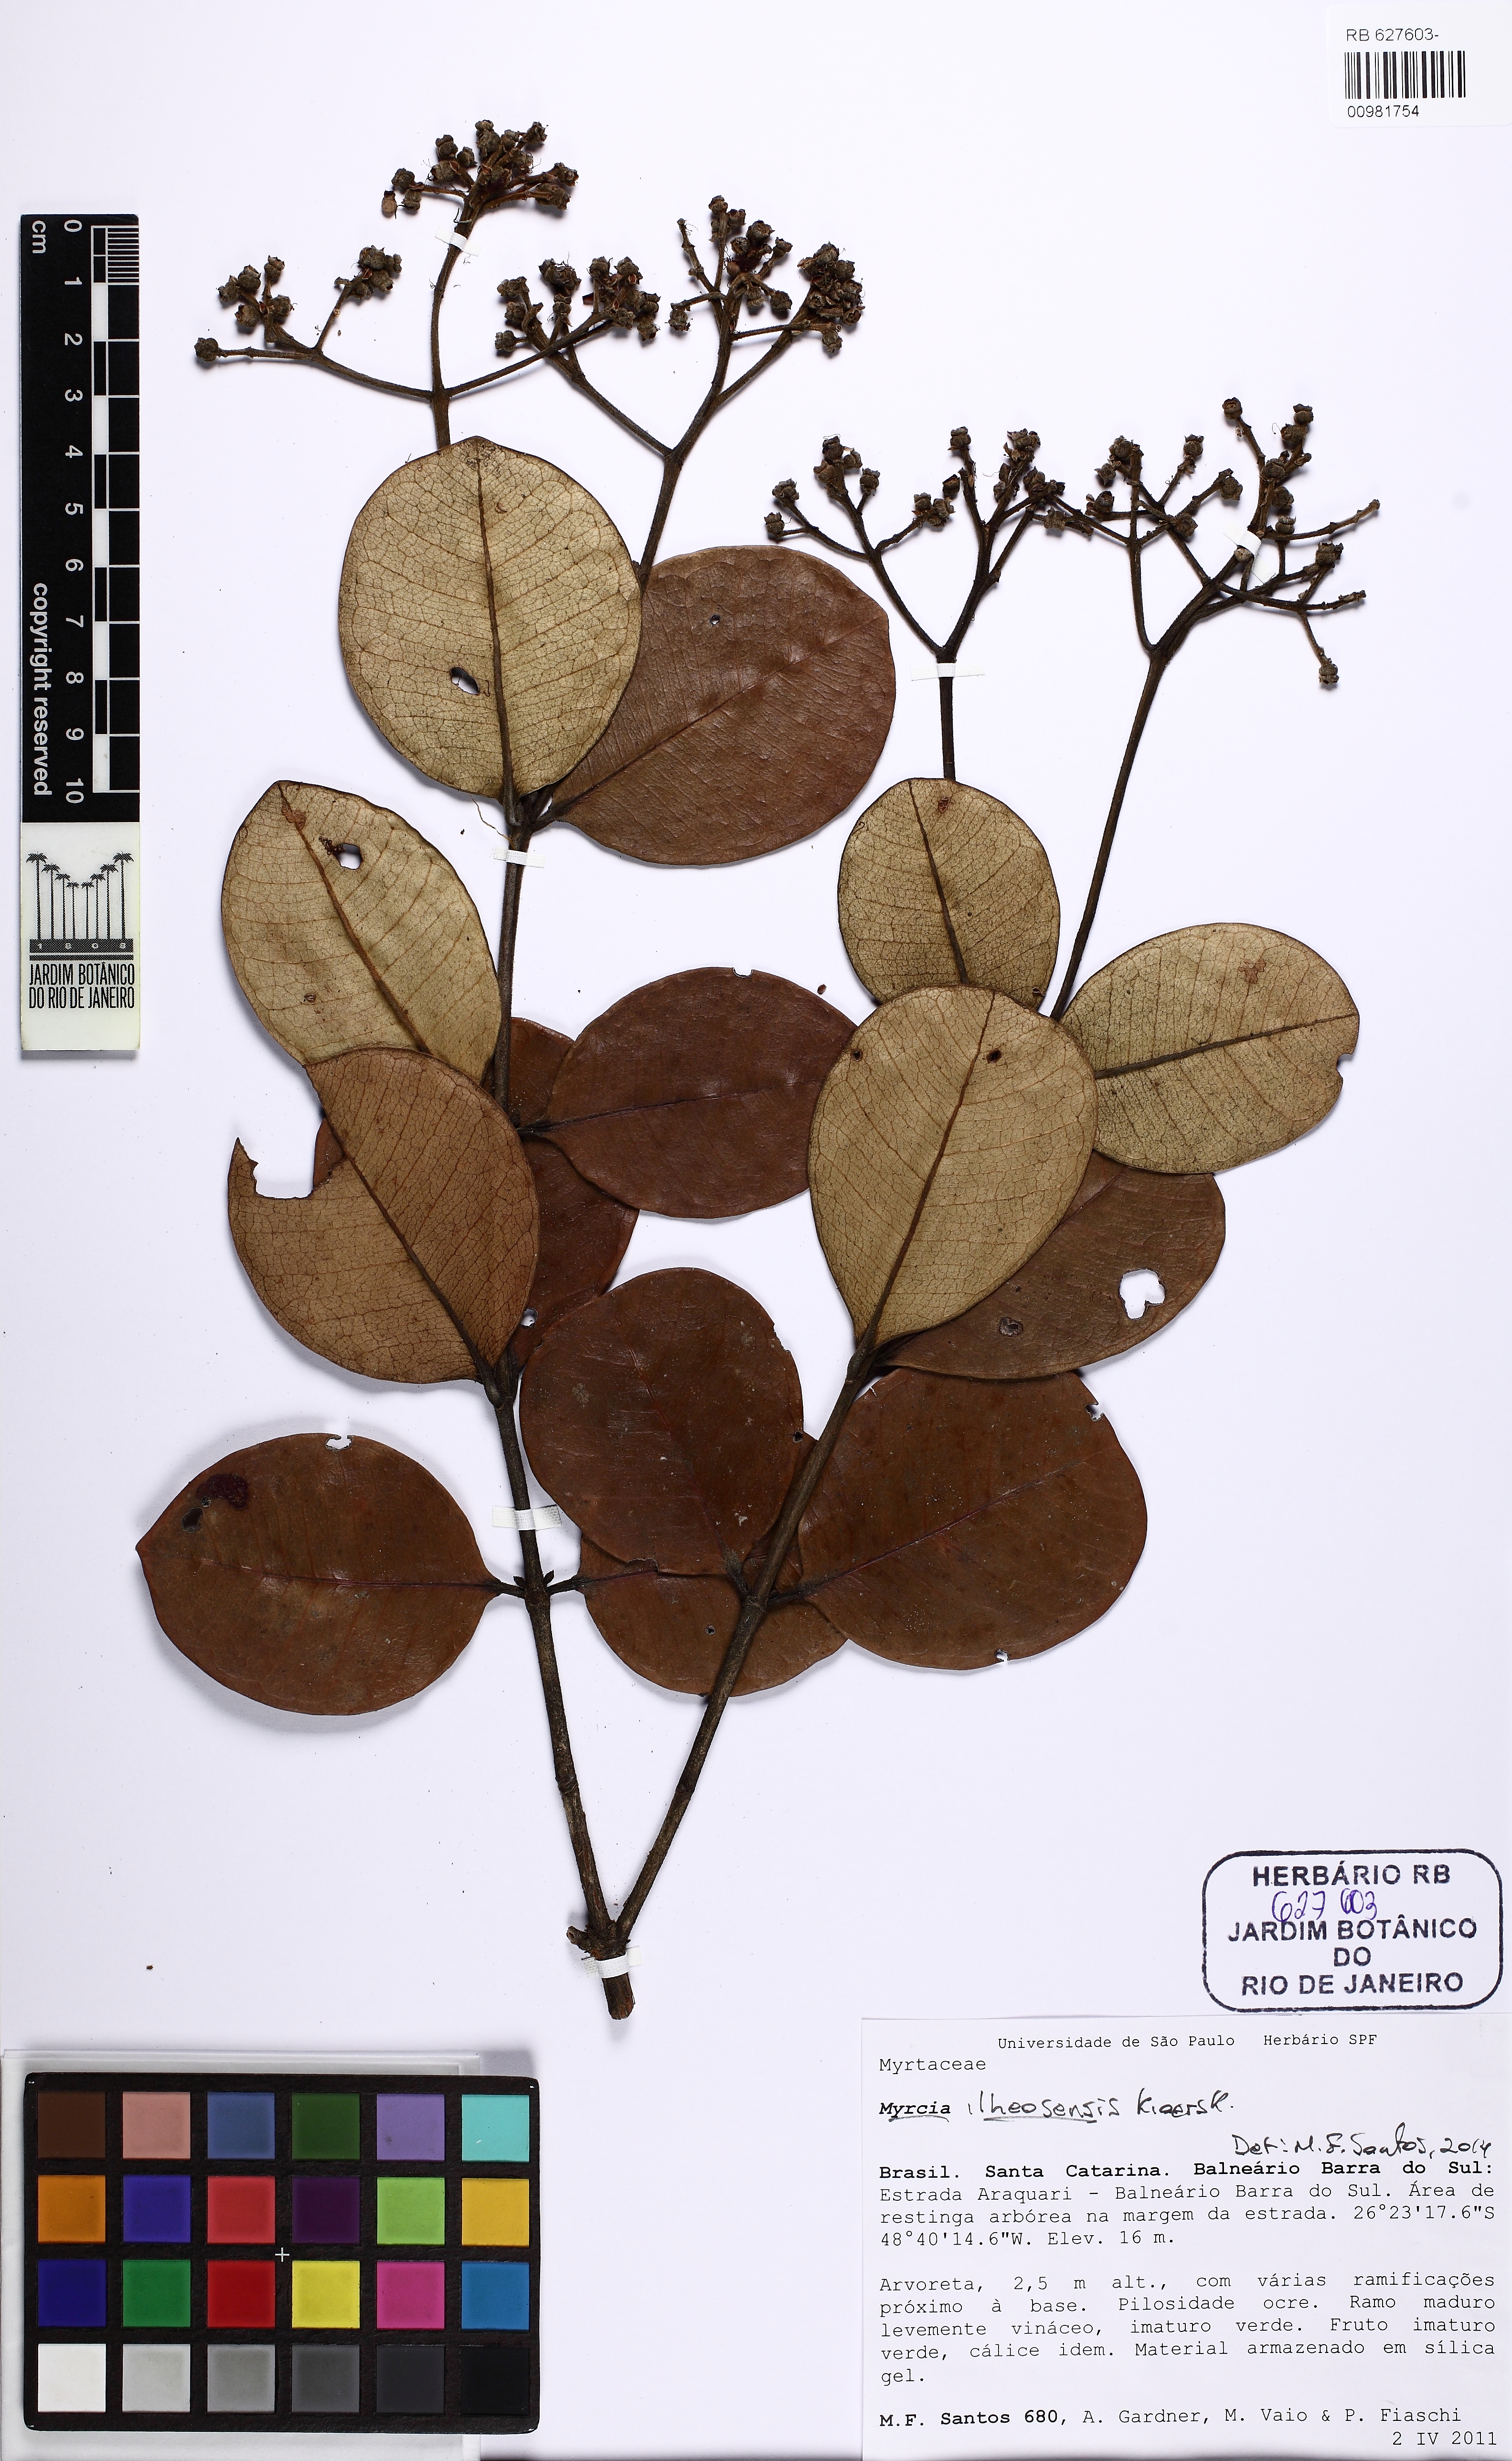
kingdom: Plantae
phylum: Tracheophyta
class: Magnoliopsida
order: Myrtales
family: Myrtaceae
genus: Myrcia
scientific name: Myrcia ilheosensis
